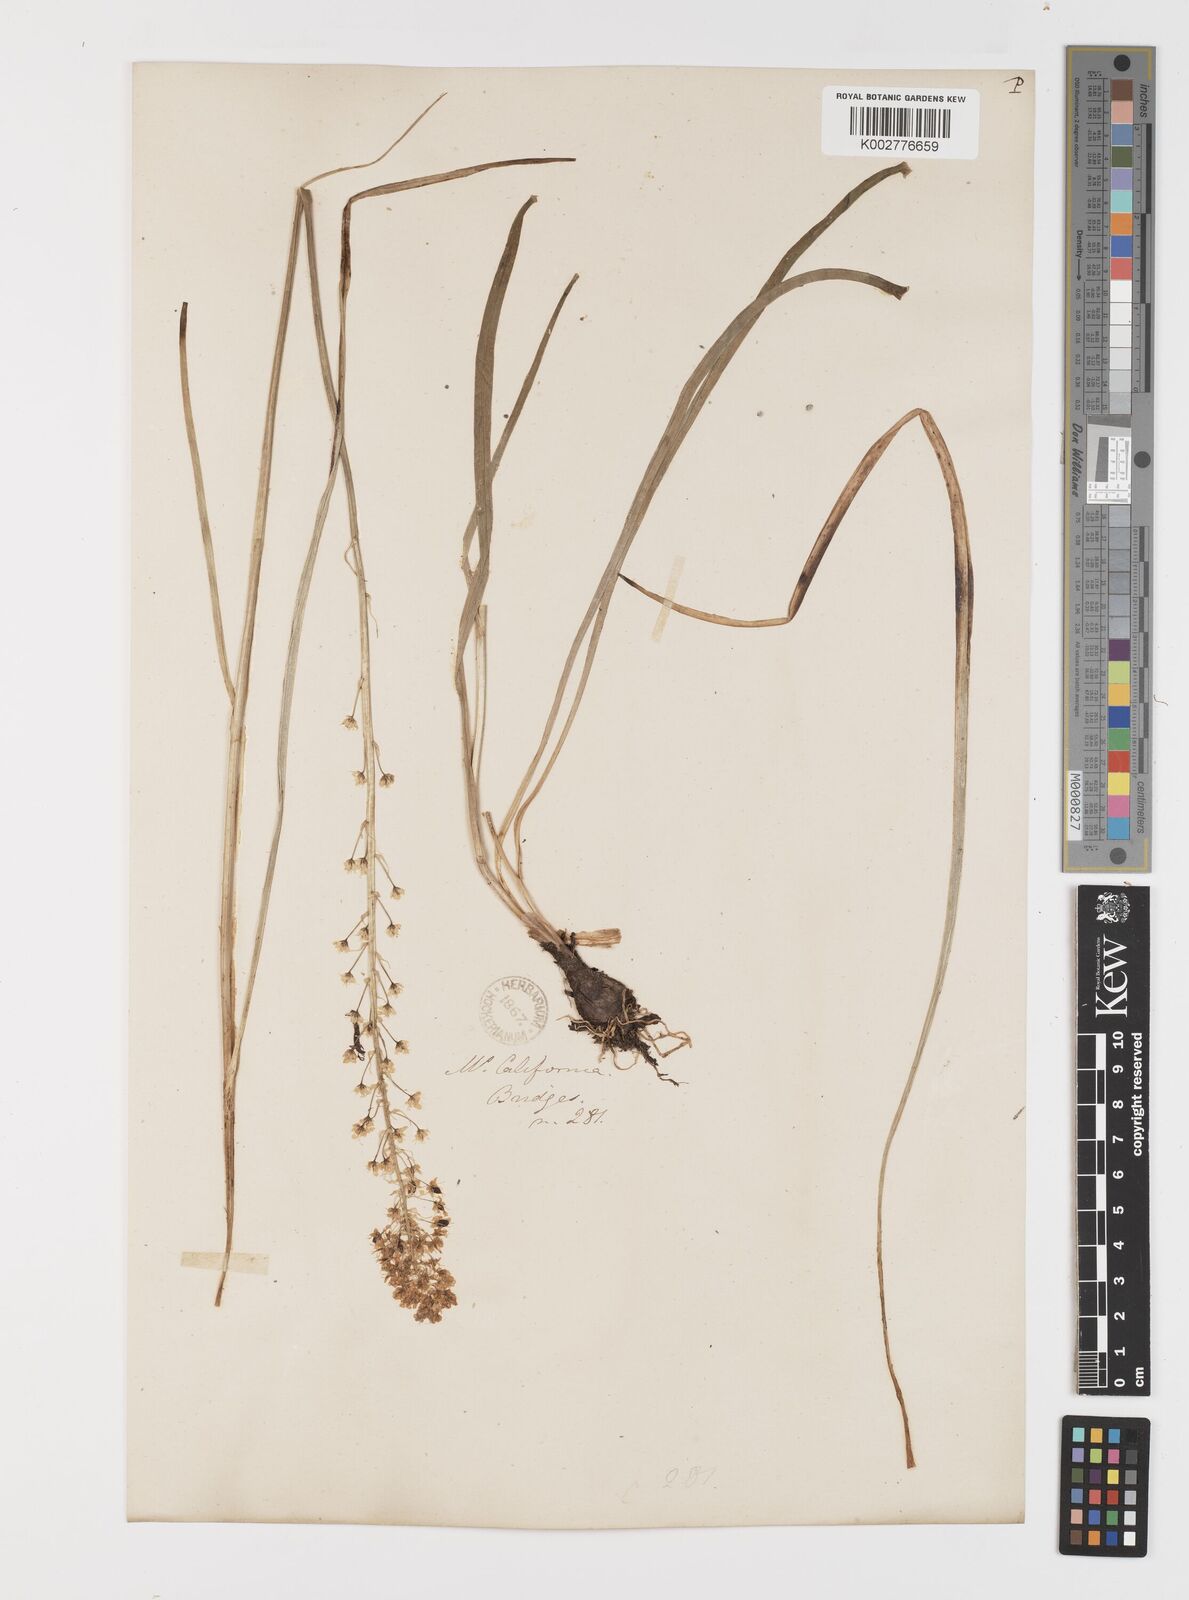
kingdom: Plantae
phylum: Tracheophyta
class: Liliopsida
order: Liliales
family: Melanthiaceae
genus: Toxicoscordion
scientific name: Toxicoscordion venenosum
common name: Meadow death camas
